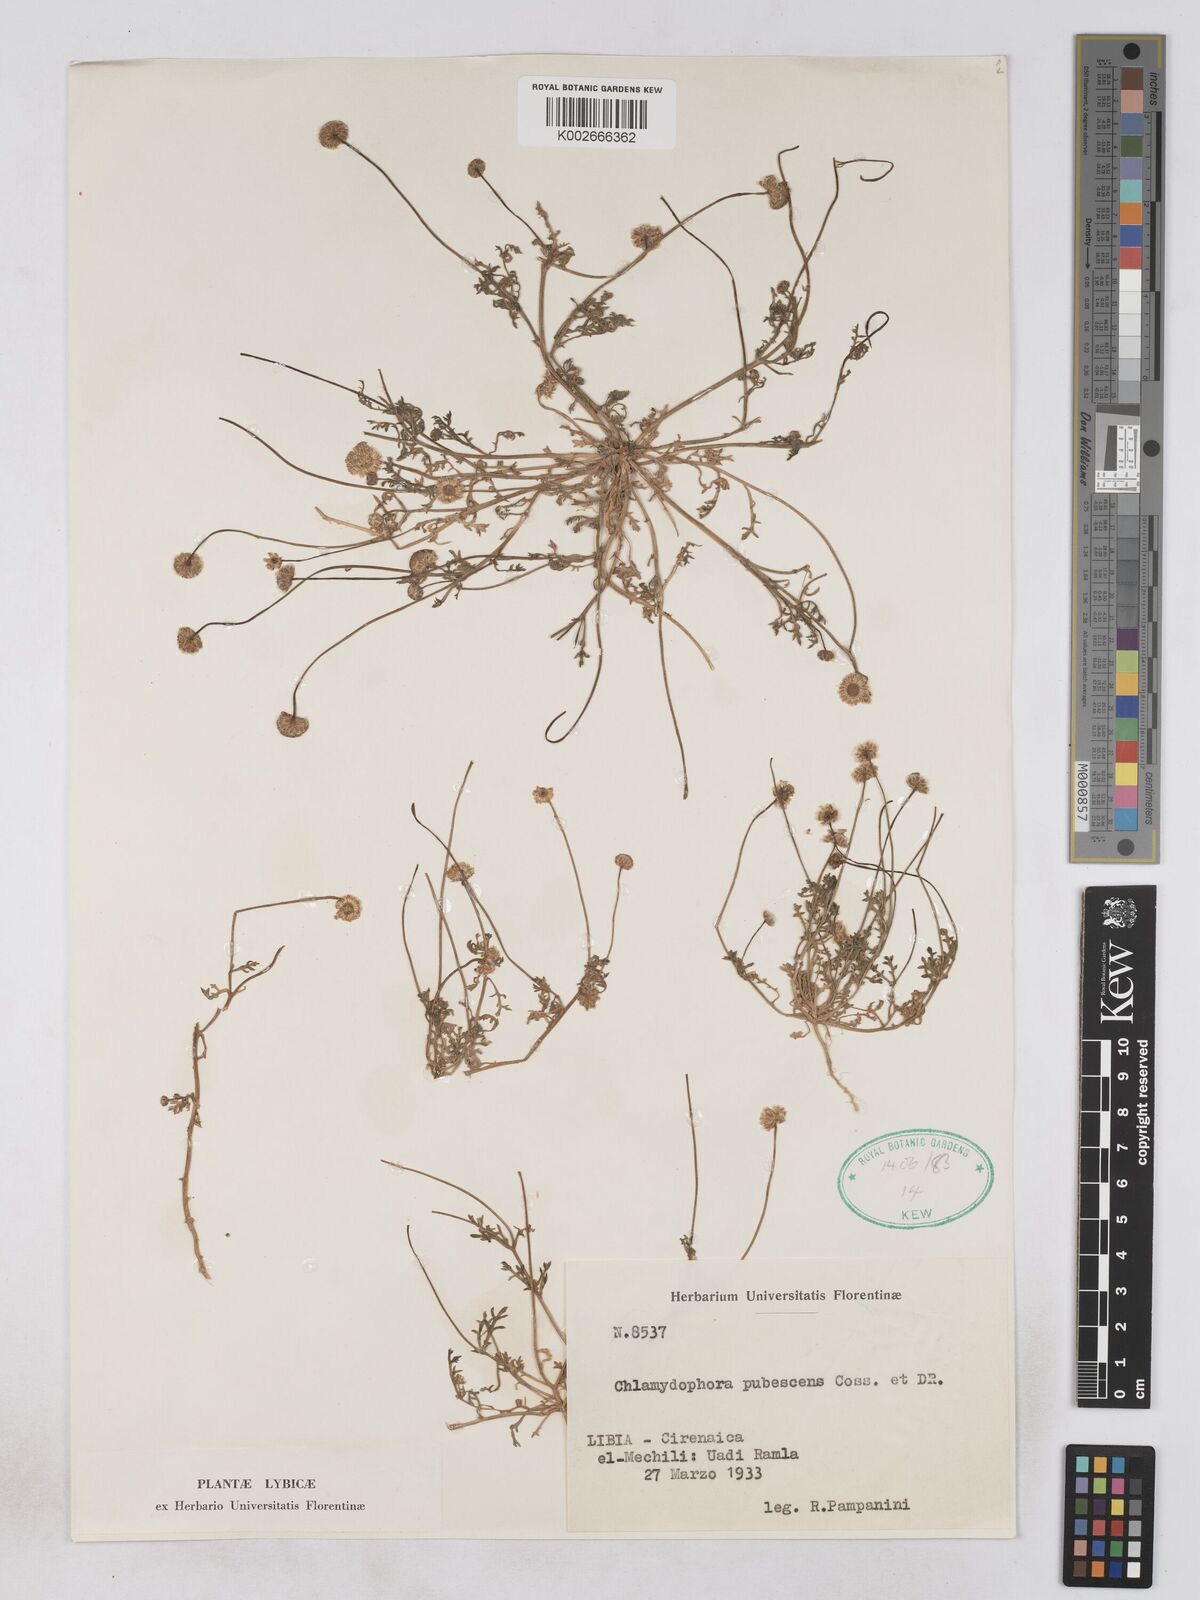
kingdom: Plantae
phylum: Tracheophyta
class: Magnoliopsida
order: Asterales
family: Asteraceae
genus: Otoglyphis
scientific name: Otoglyphis pubescens
